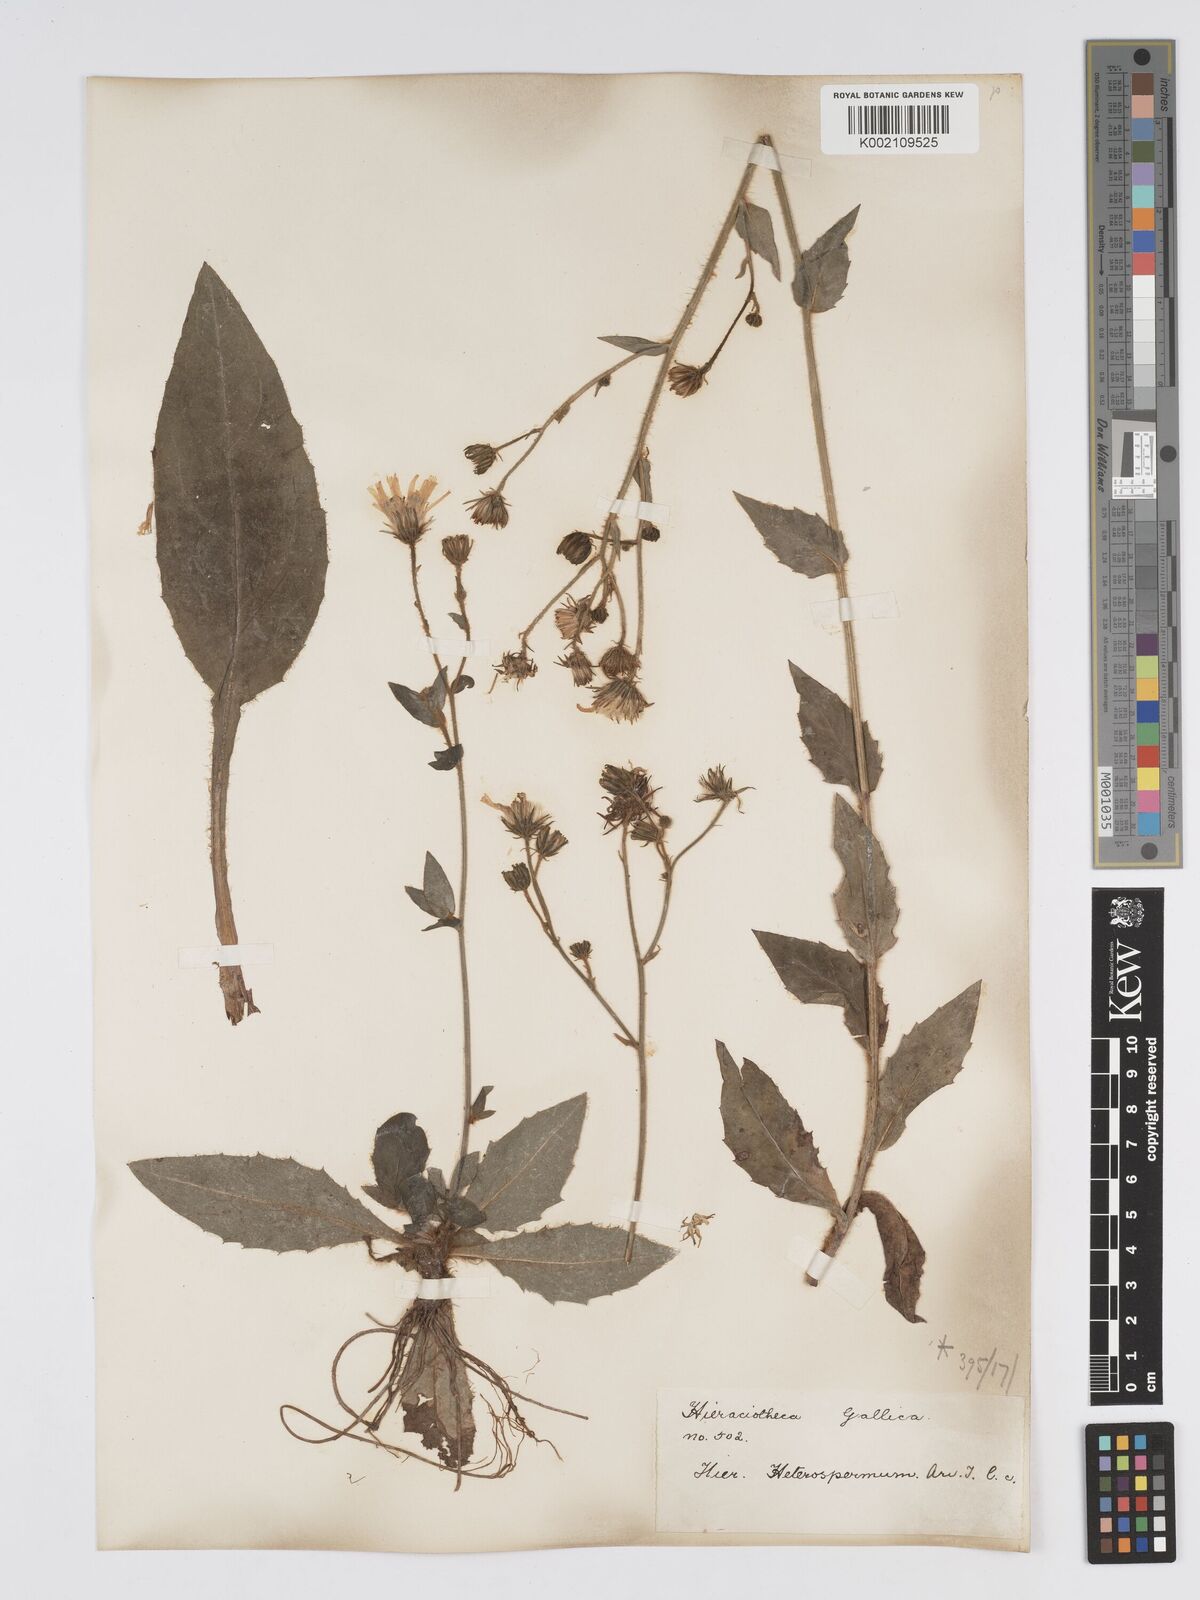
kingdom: Plantae
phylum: Tracheophyta
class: Magnoliopsida
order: Asterales
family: Asteraceae
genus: Hieracium
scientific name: Hieracium racemosum
